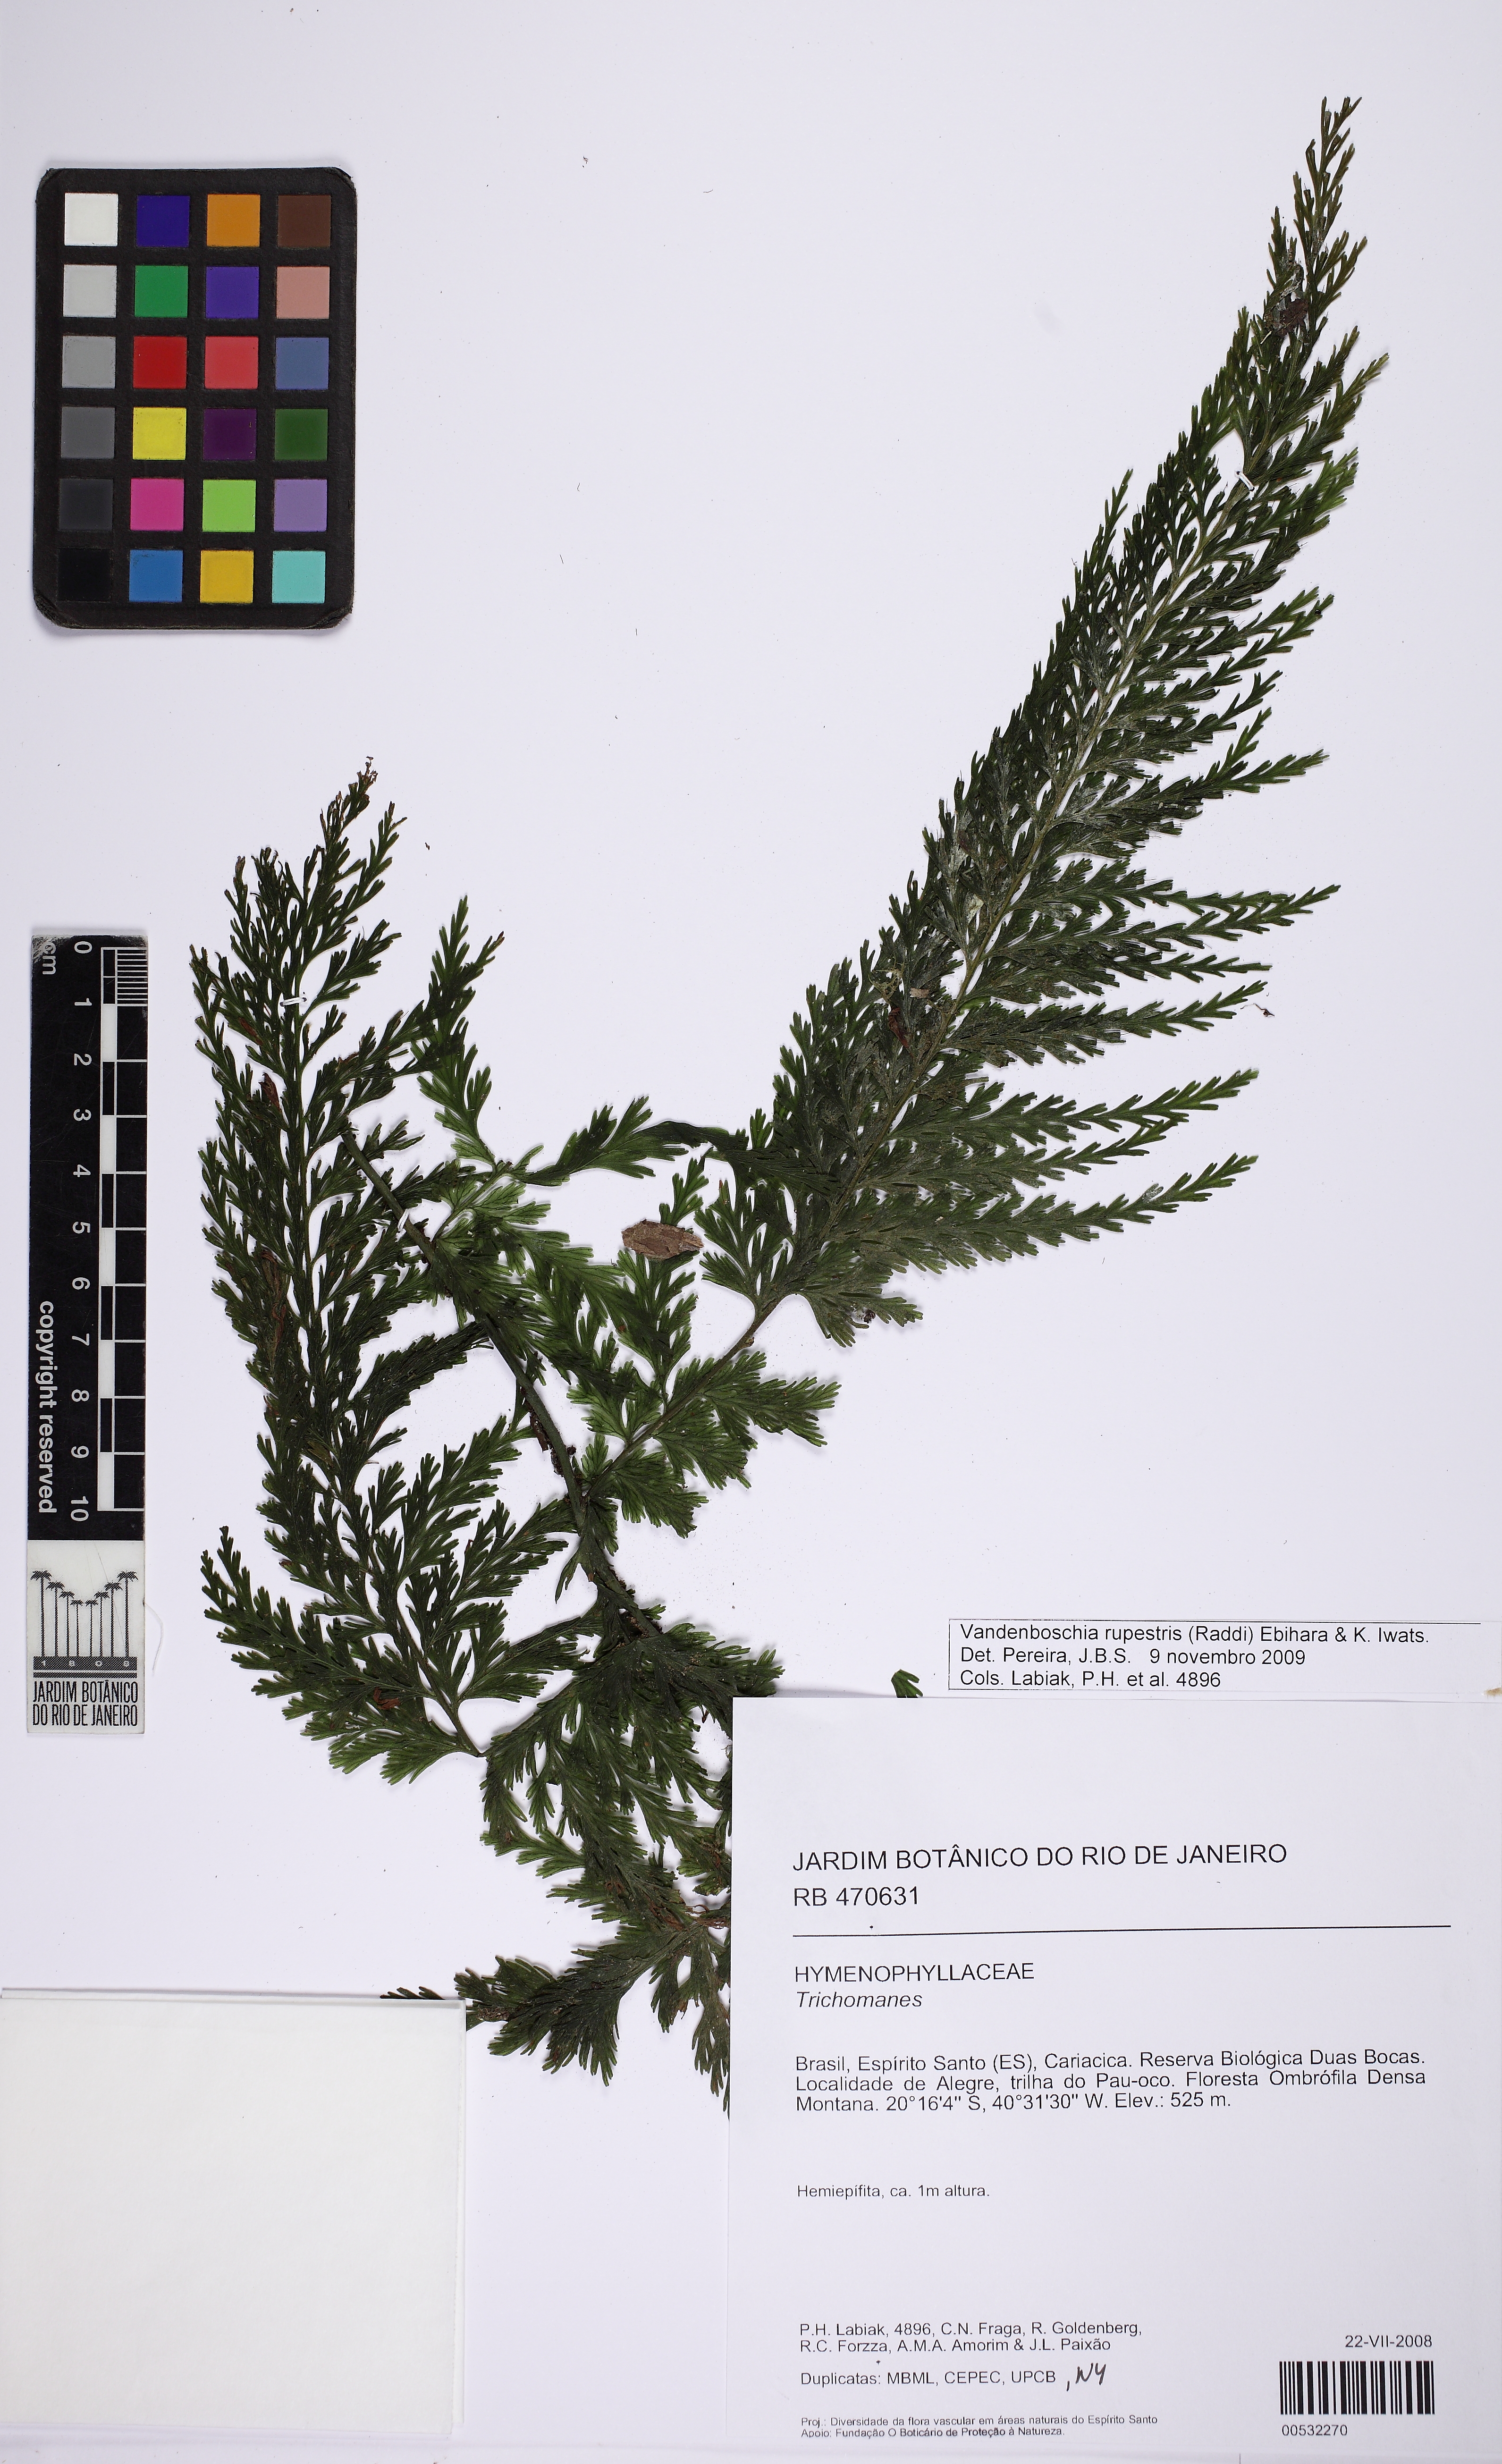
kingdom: Plantae
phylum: Tracheophyta
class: Polypodiopsida
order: Hymenophyllales
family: Hymenophyllaceae
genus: Vandenboschia
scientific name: Vandenboschia rupestris
